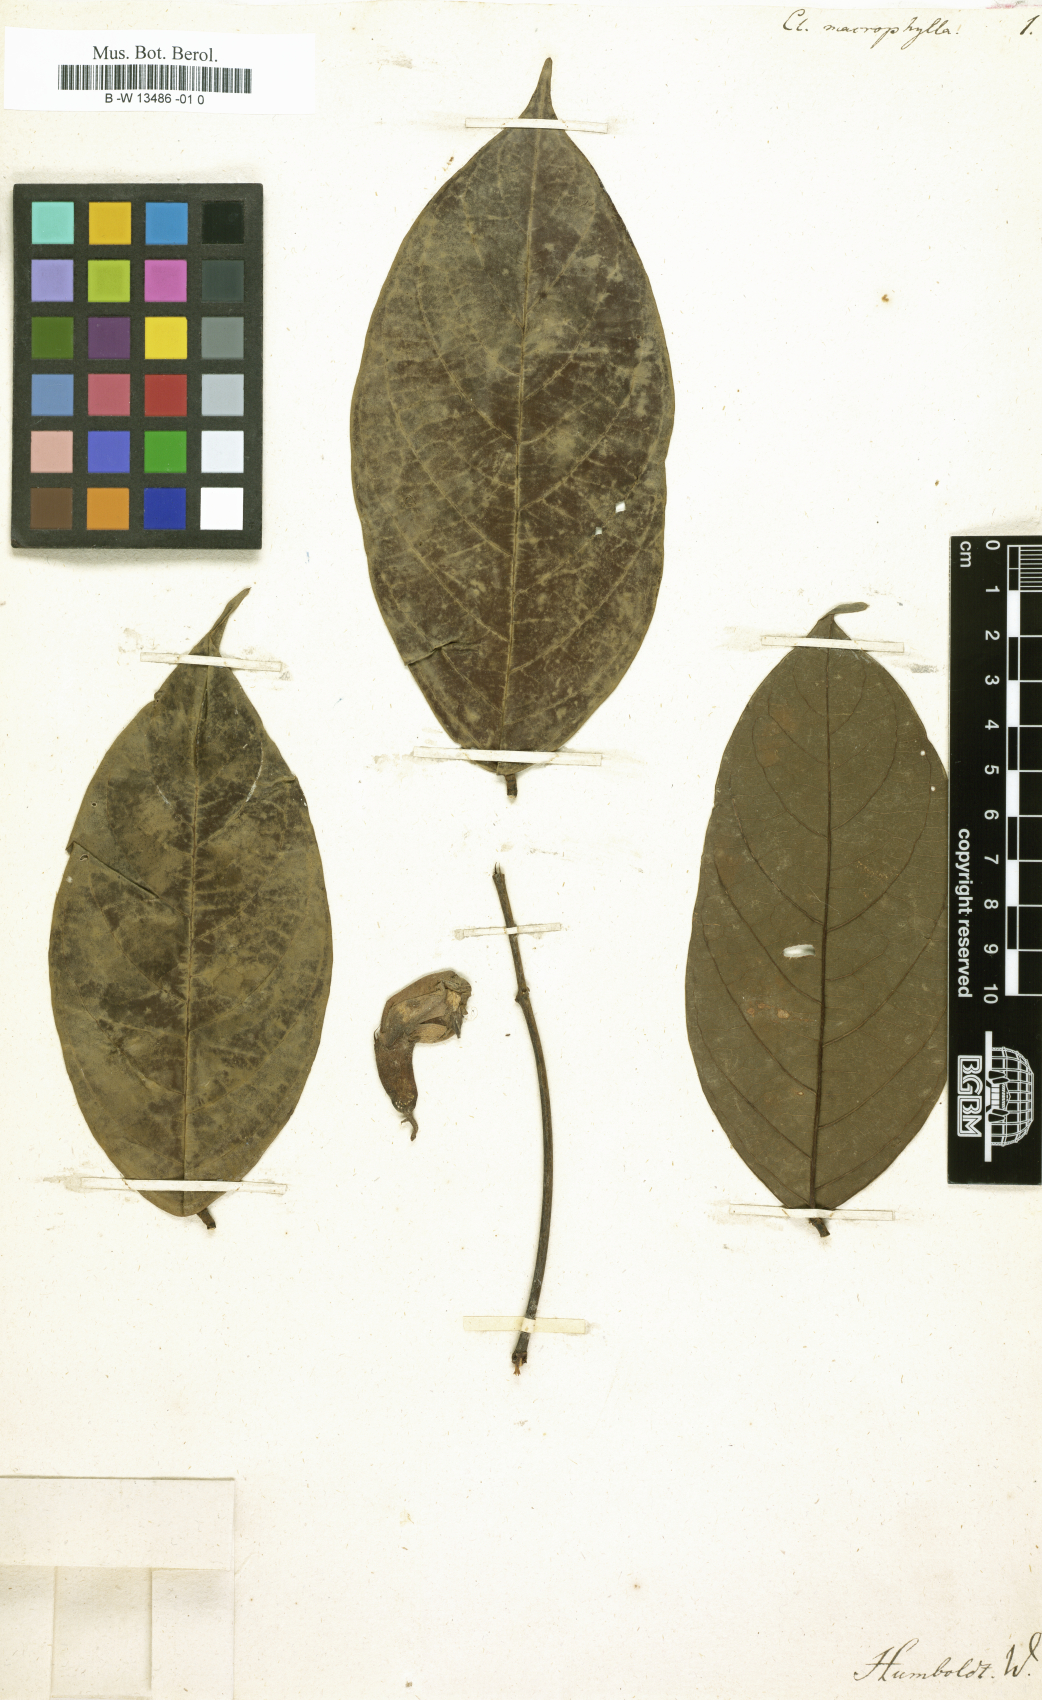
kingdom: Plantae
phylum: Tracheophyta
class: Magnoliopsida
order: Fabales
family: Fabaceae
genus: Clitoria
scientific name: Clitoria macrophylla
